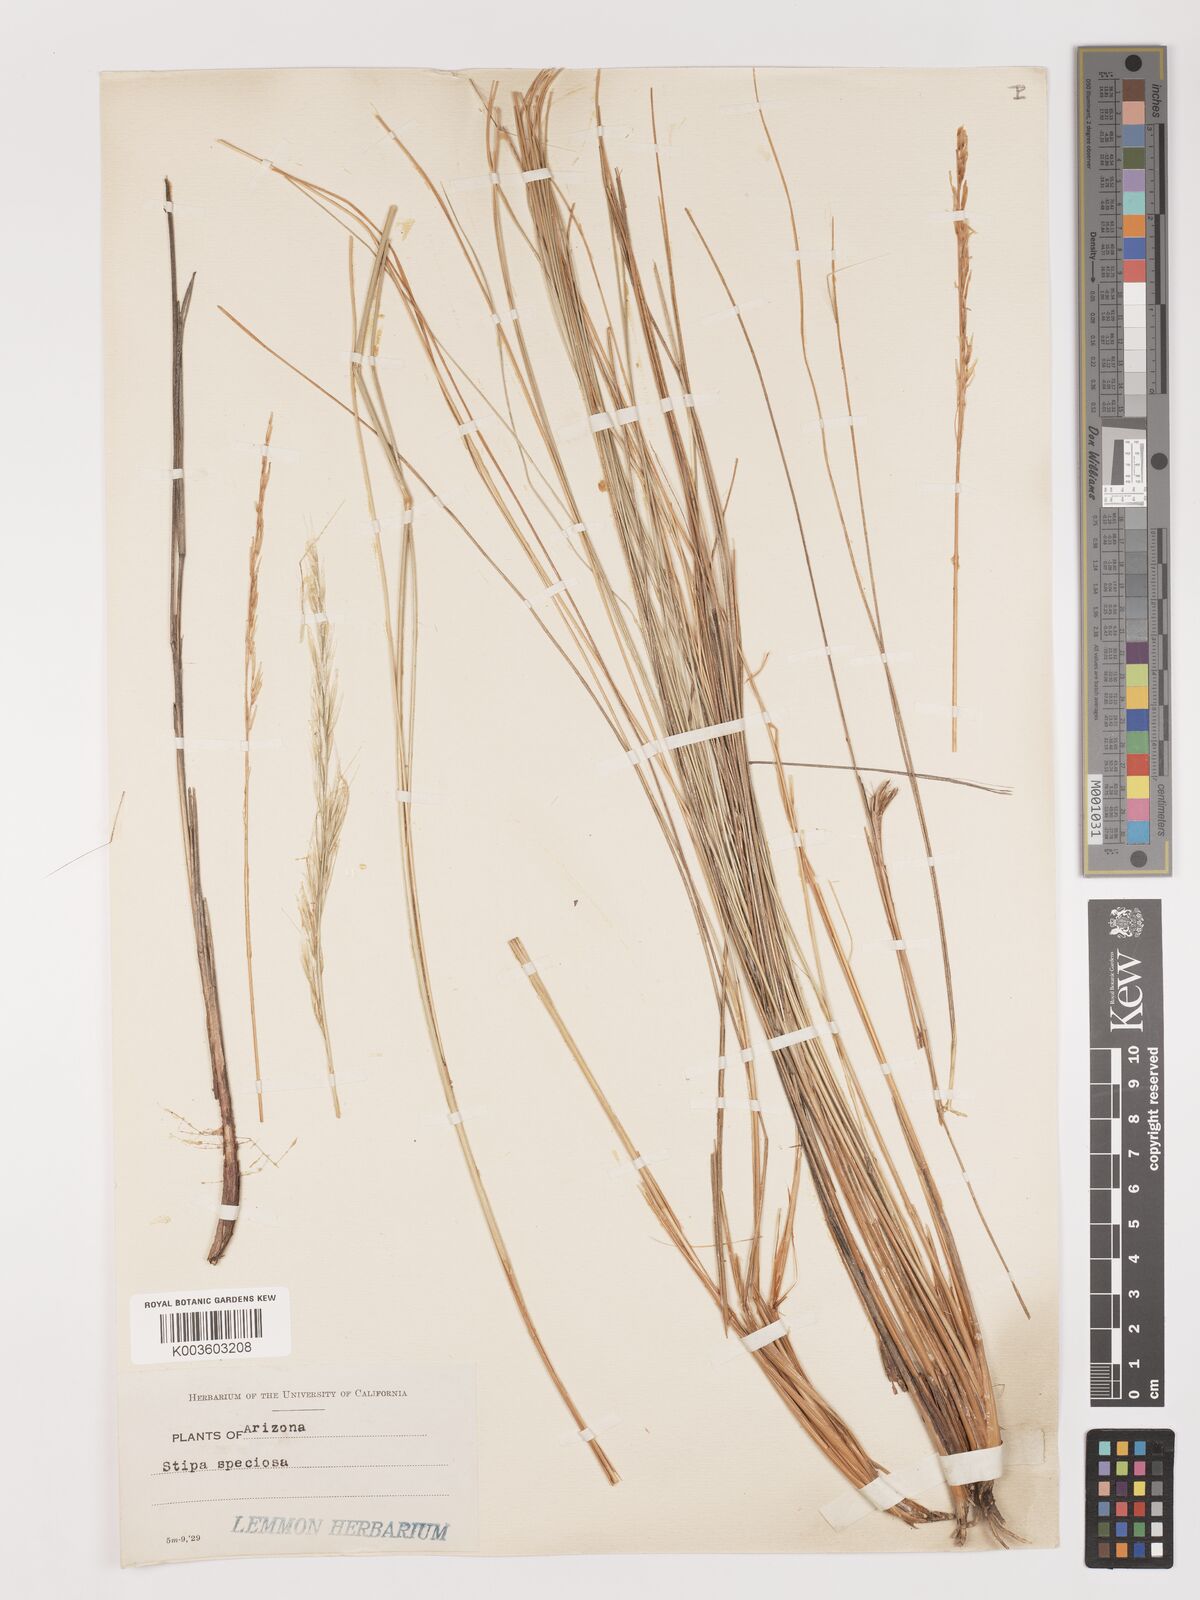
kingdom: Plantae
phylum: Tracheophyta
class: Liliopsida
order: Poales
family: Poaceae
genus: Pappostipa
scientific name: Pappostipa speciosa
